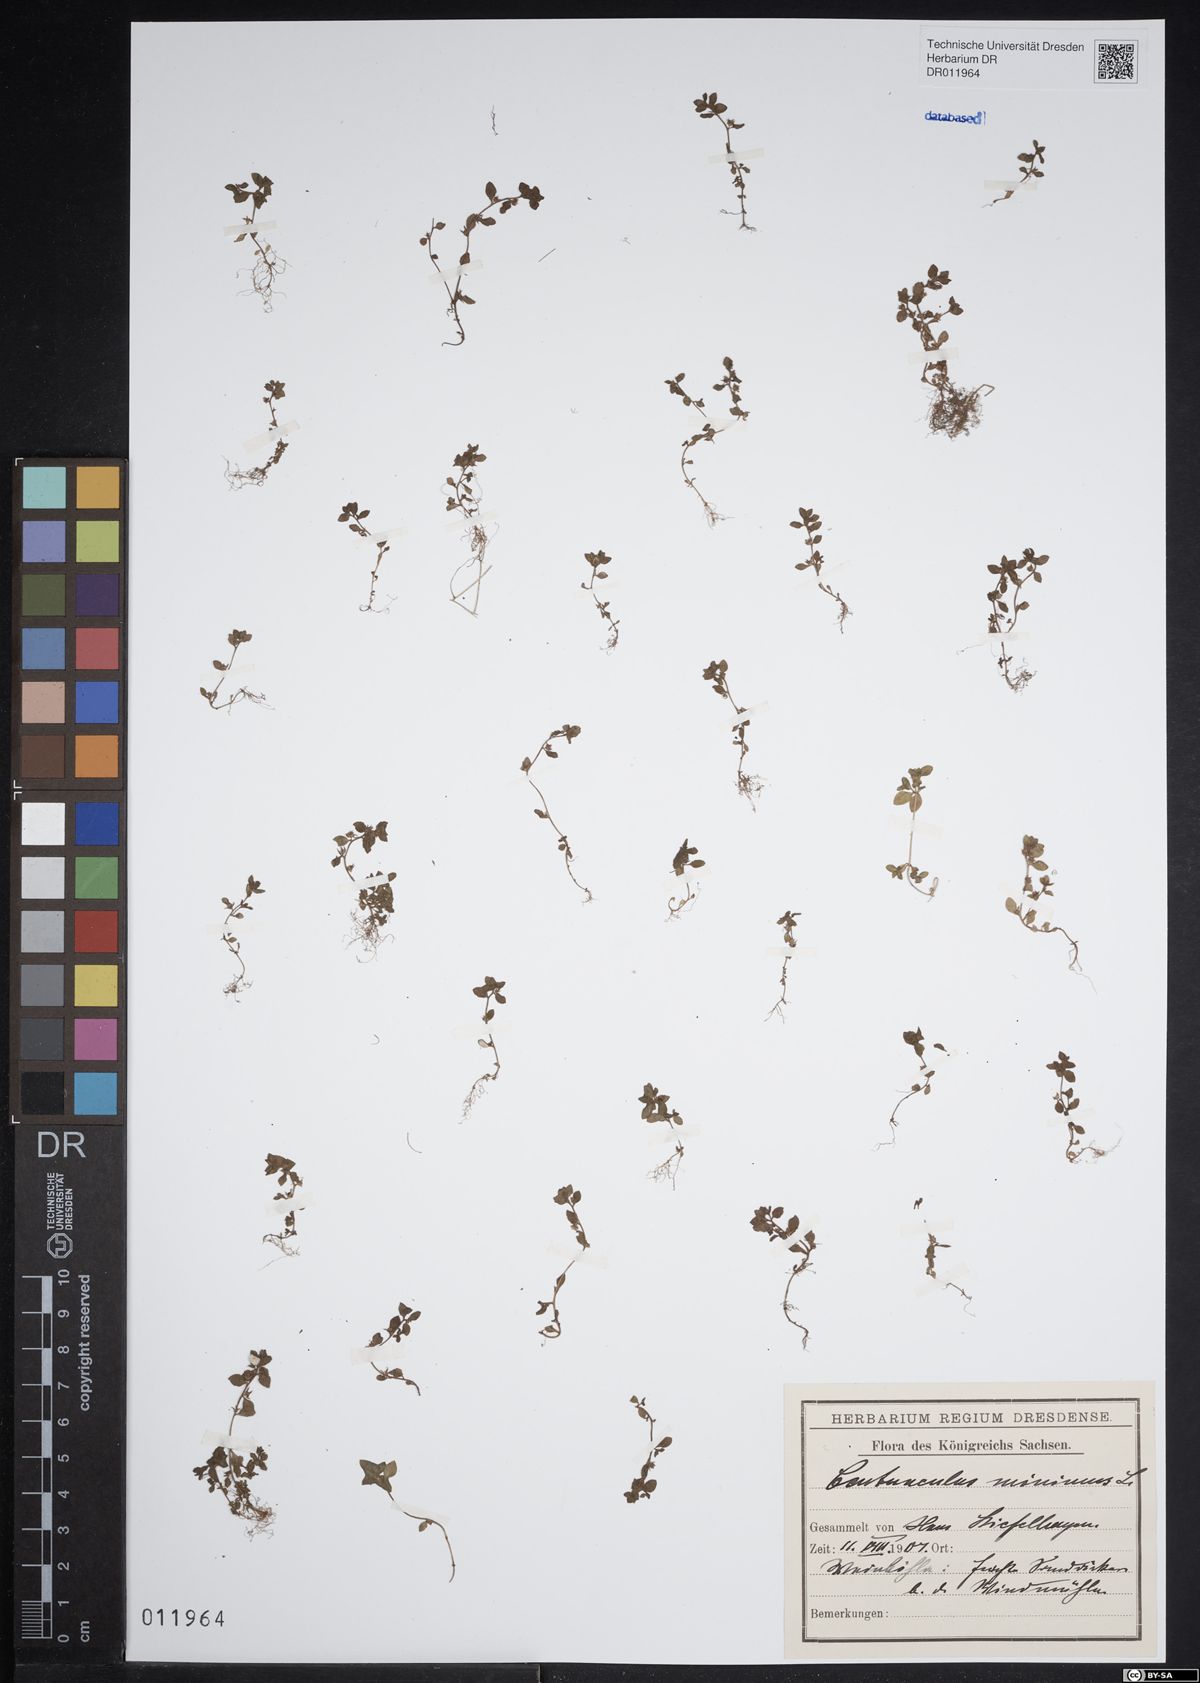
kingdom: Plantae
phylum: Tracheophyta
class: Magnoliopsida
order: Ericales
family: Primulaceae
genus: Lysimachia
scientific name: Lysimachia minima
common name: Chaffweed
